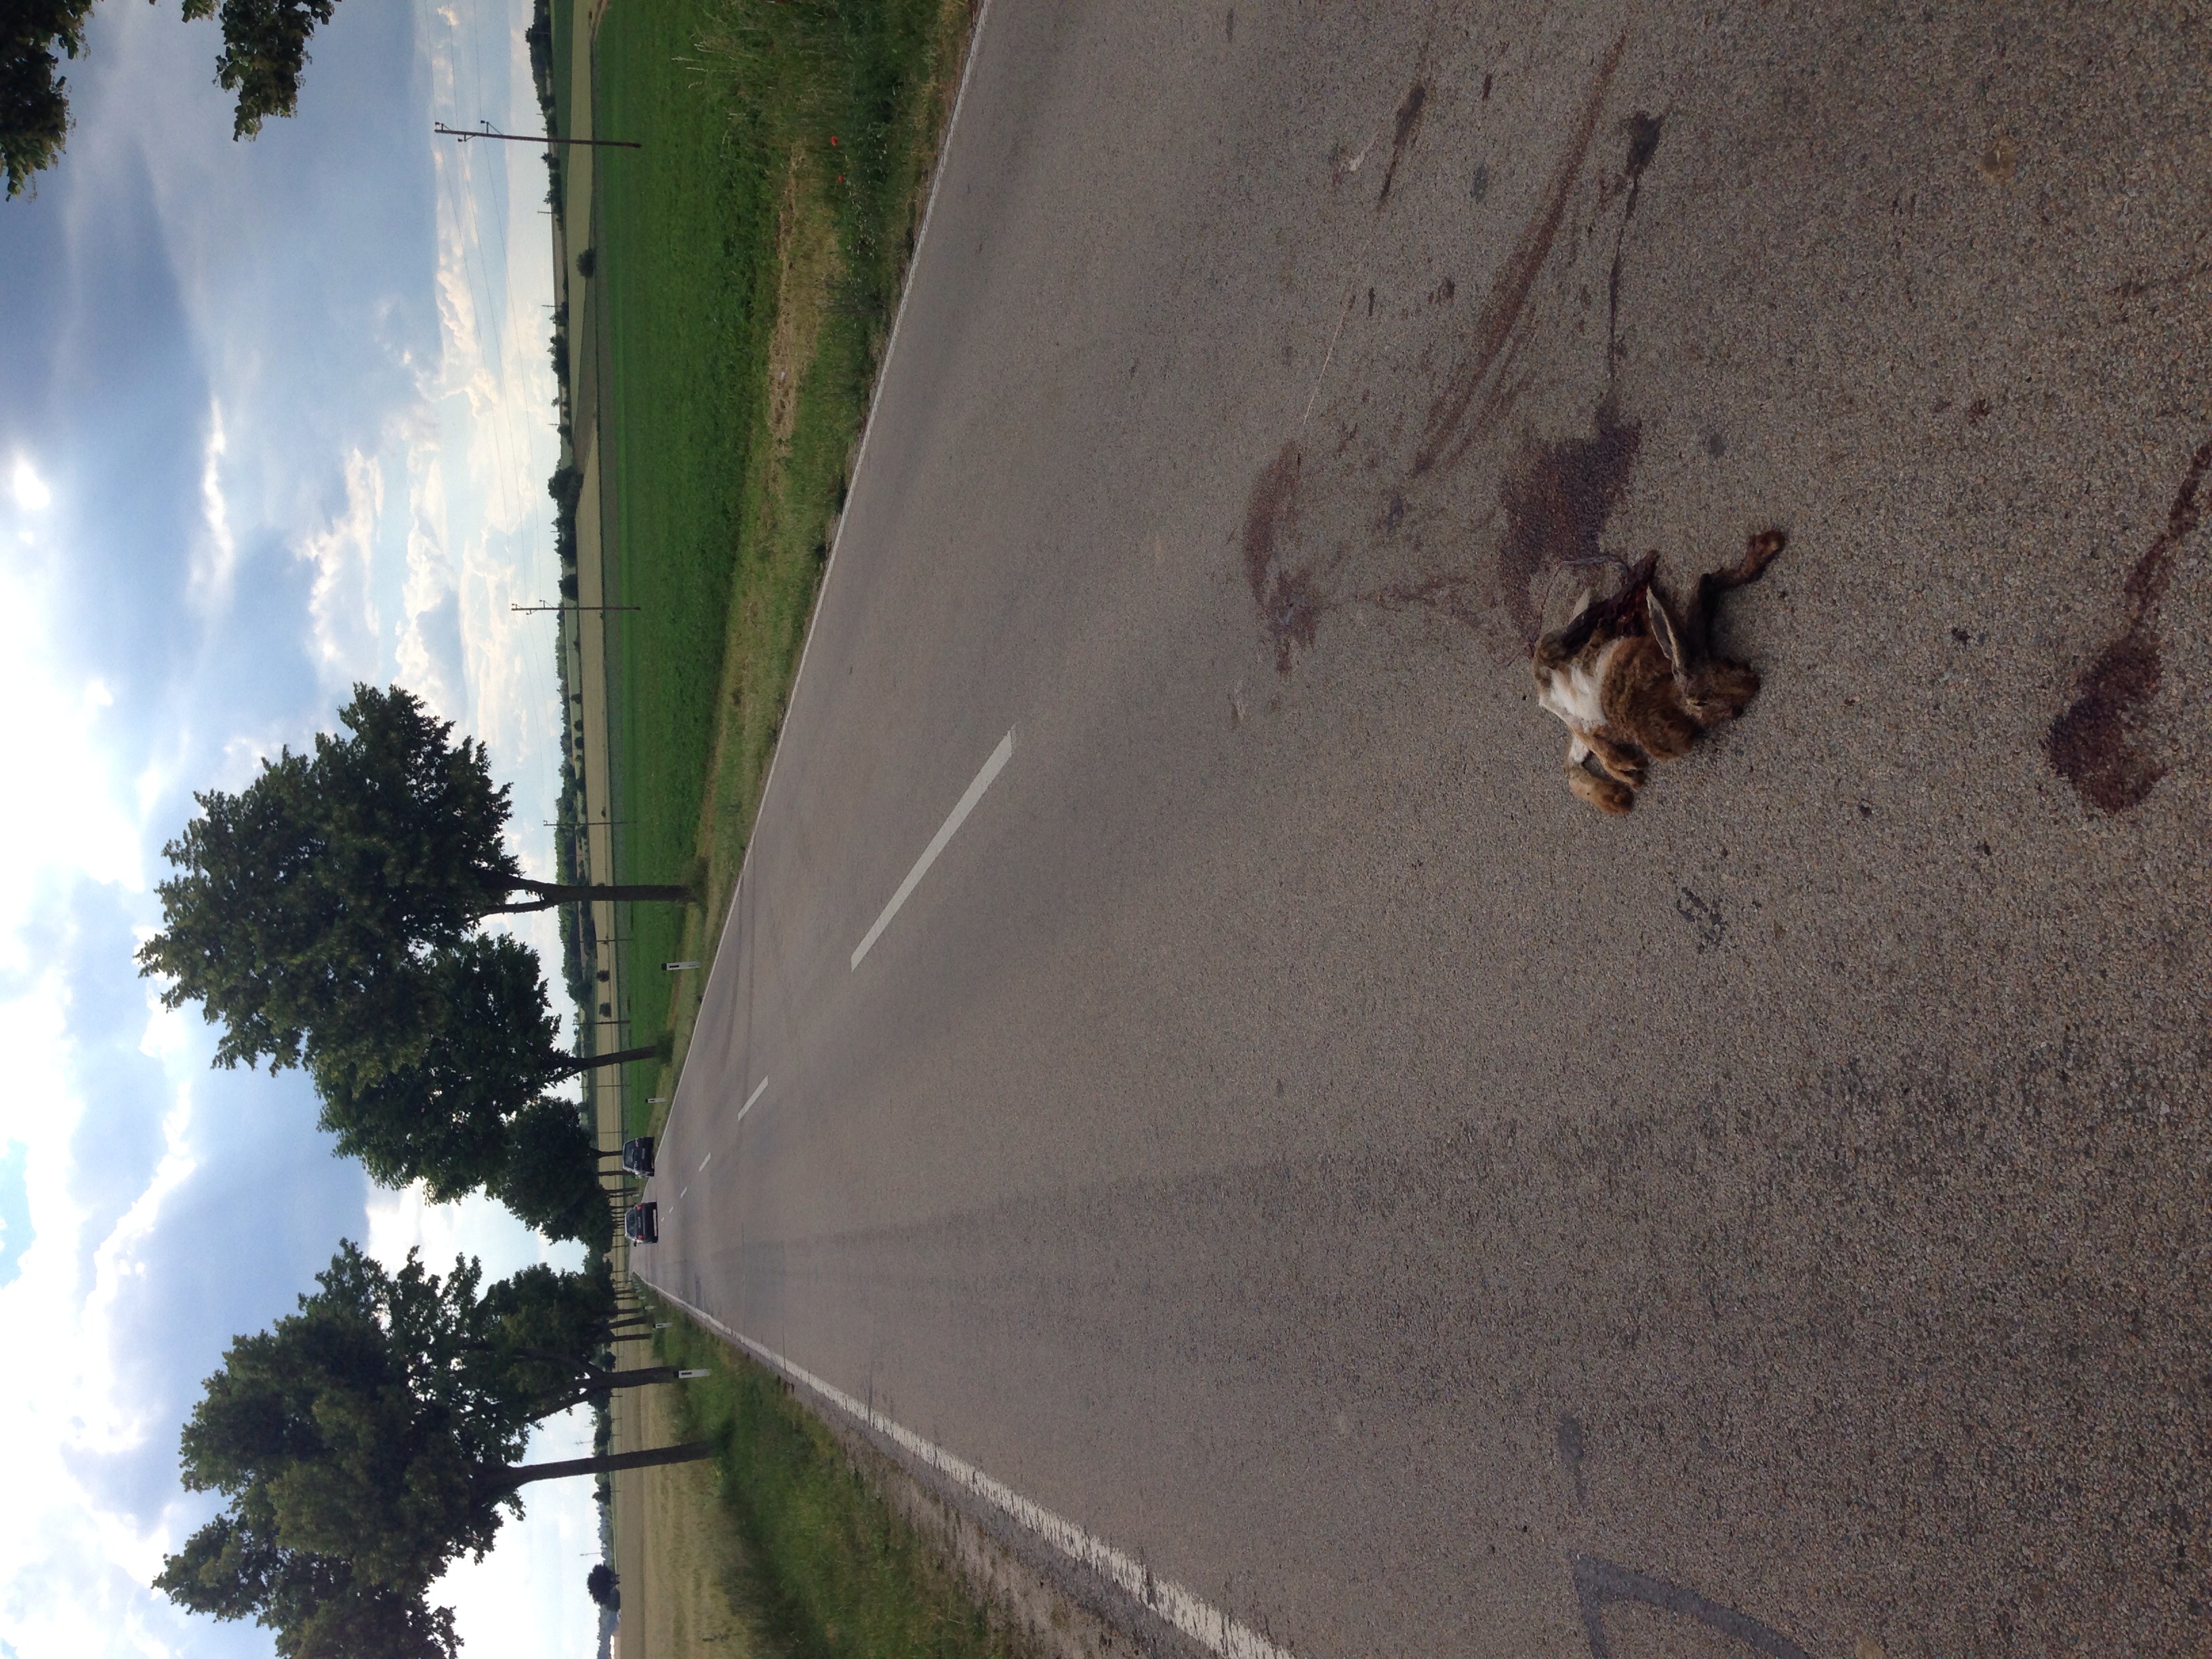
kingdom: Animalia
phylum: Chordata
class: Mammalia
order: Lagomorpha
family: Leporidae
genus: Lepus
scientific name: Lepus europaeus
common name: European hare
